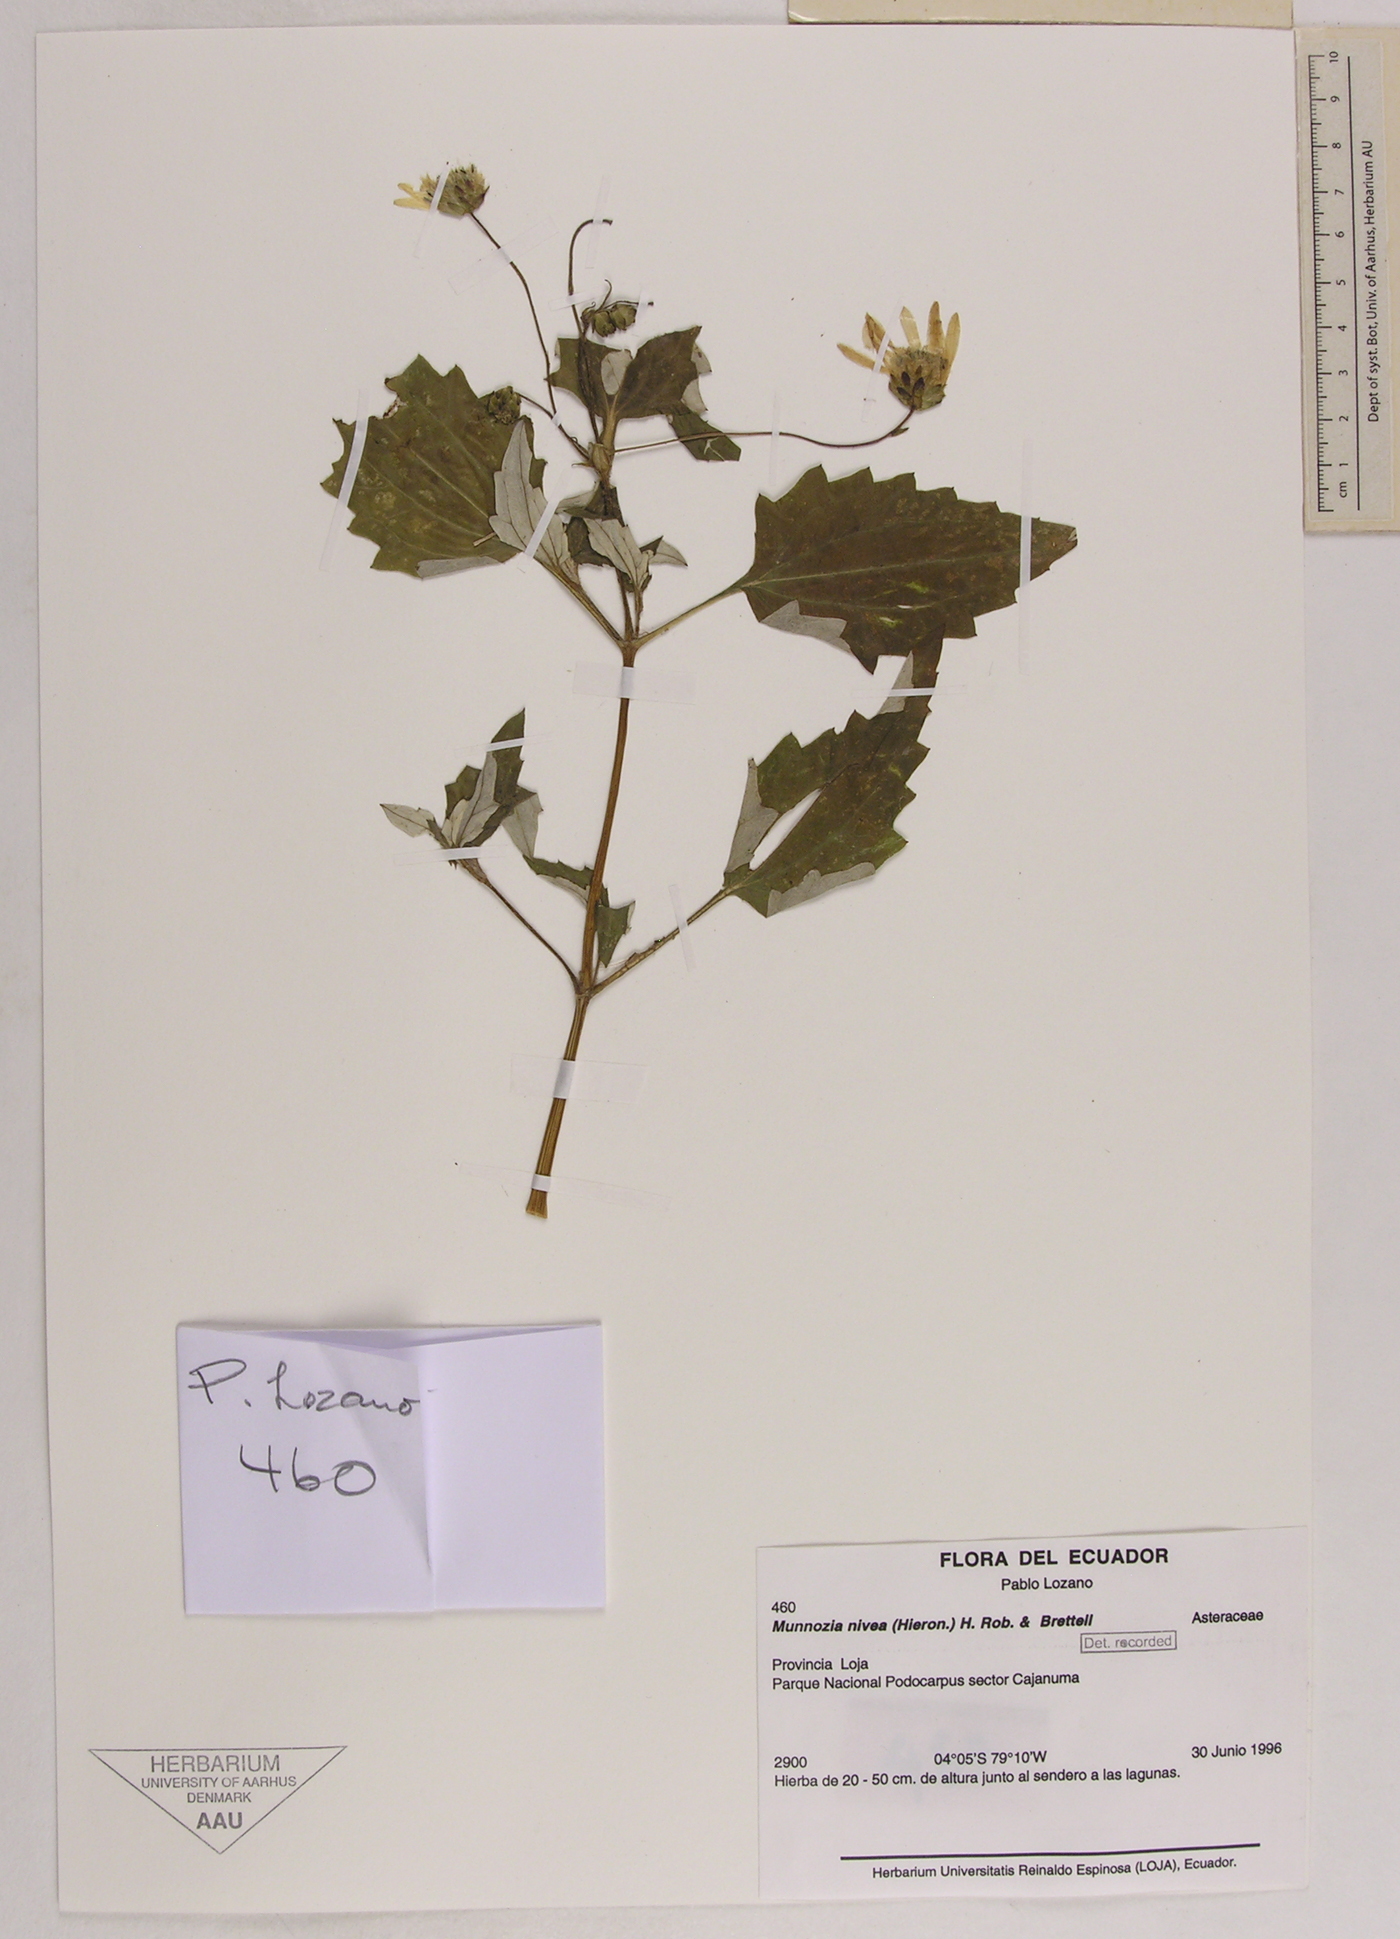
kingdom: Plantae
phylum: Tracheophyta
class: Magnoliopsida
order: Asterales
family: Asteraceae
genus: Munnozia
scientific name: Munnozia nivea
